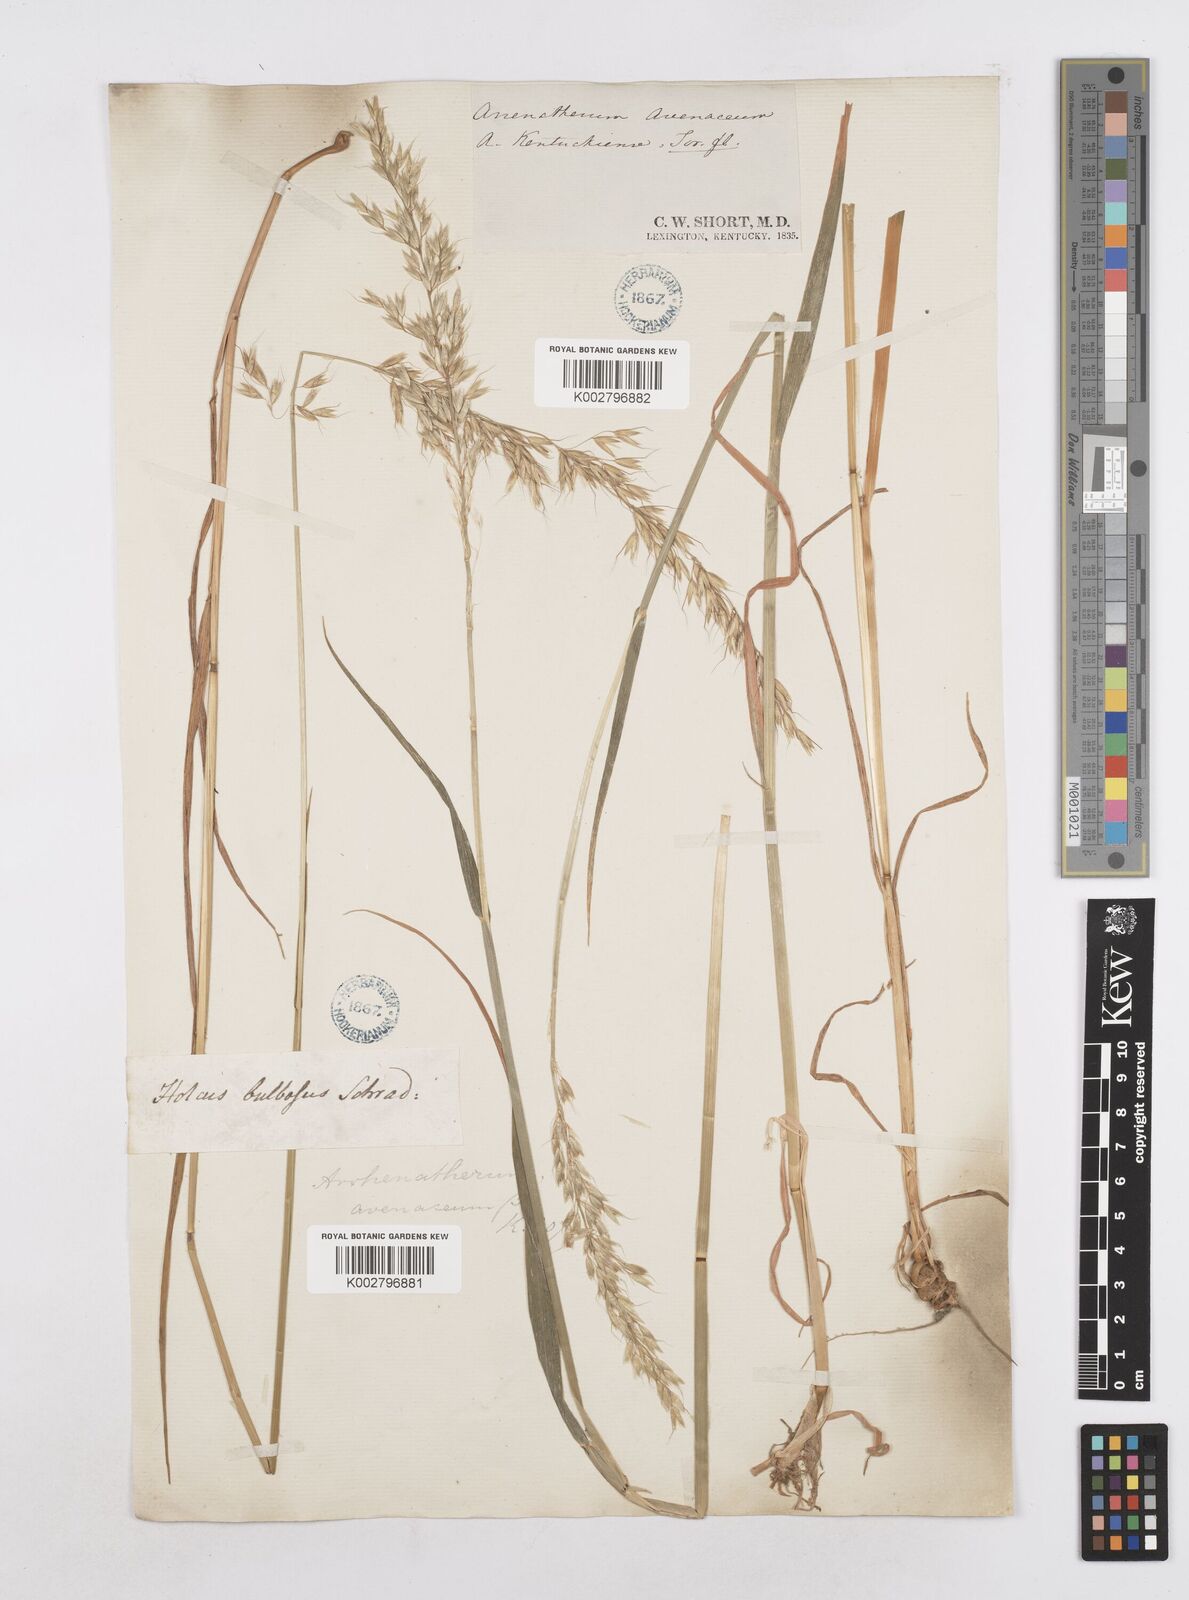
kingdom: Plantae
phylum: Tracheophyta
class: Liliopsida
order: Poales
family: Poaceae
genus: Arrhenatherum
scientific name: Arrhenatherum elatius
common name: Tall oatgrass
